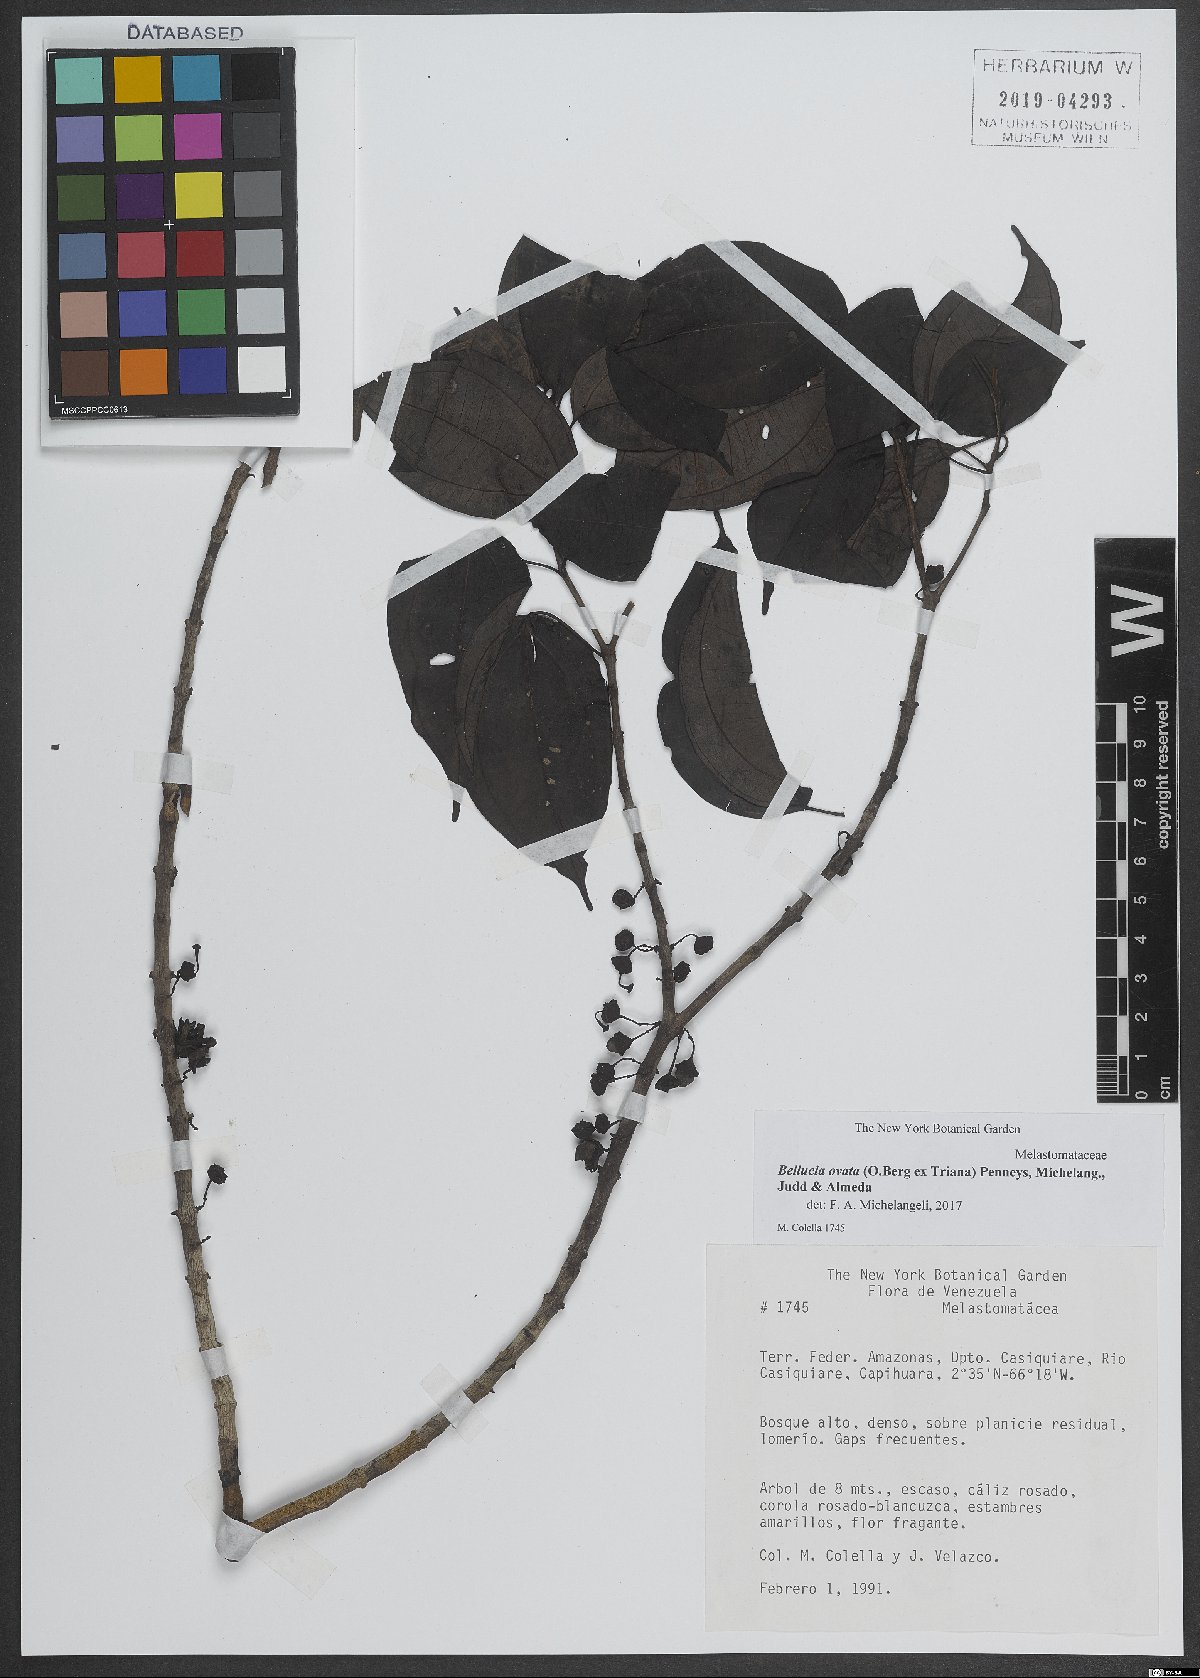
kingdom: Plantae
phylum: Tracheophyta
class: Magnoliopsida
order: Myrtales
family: Melastomataceae
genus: Bellucia
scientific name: Bellucia ovata
